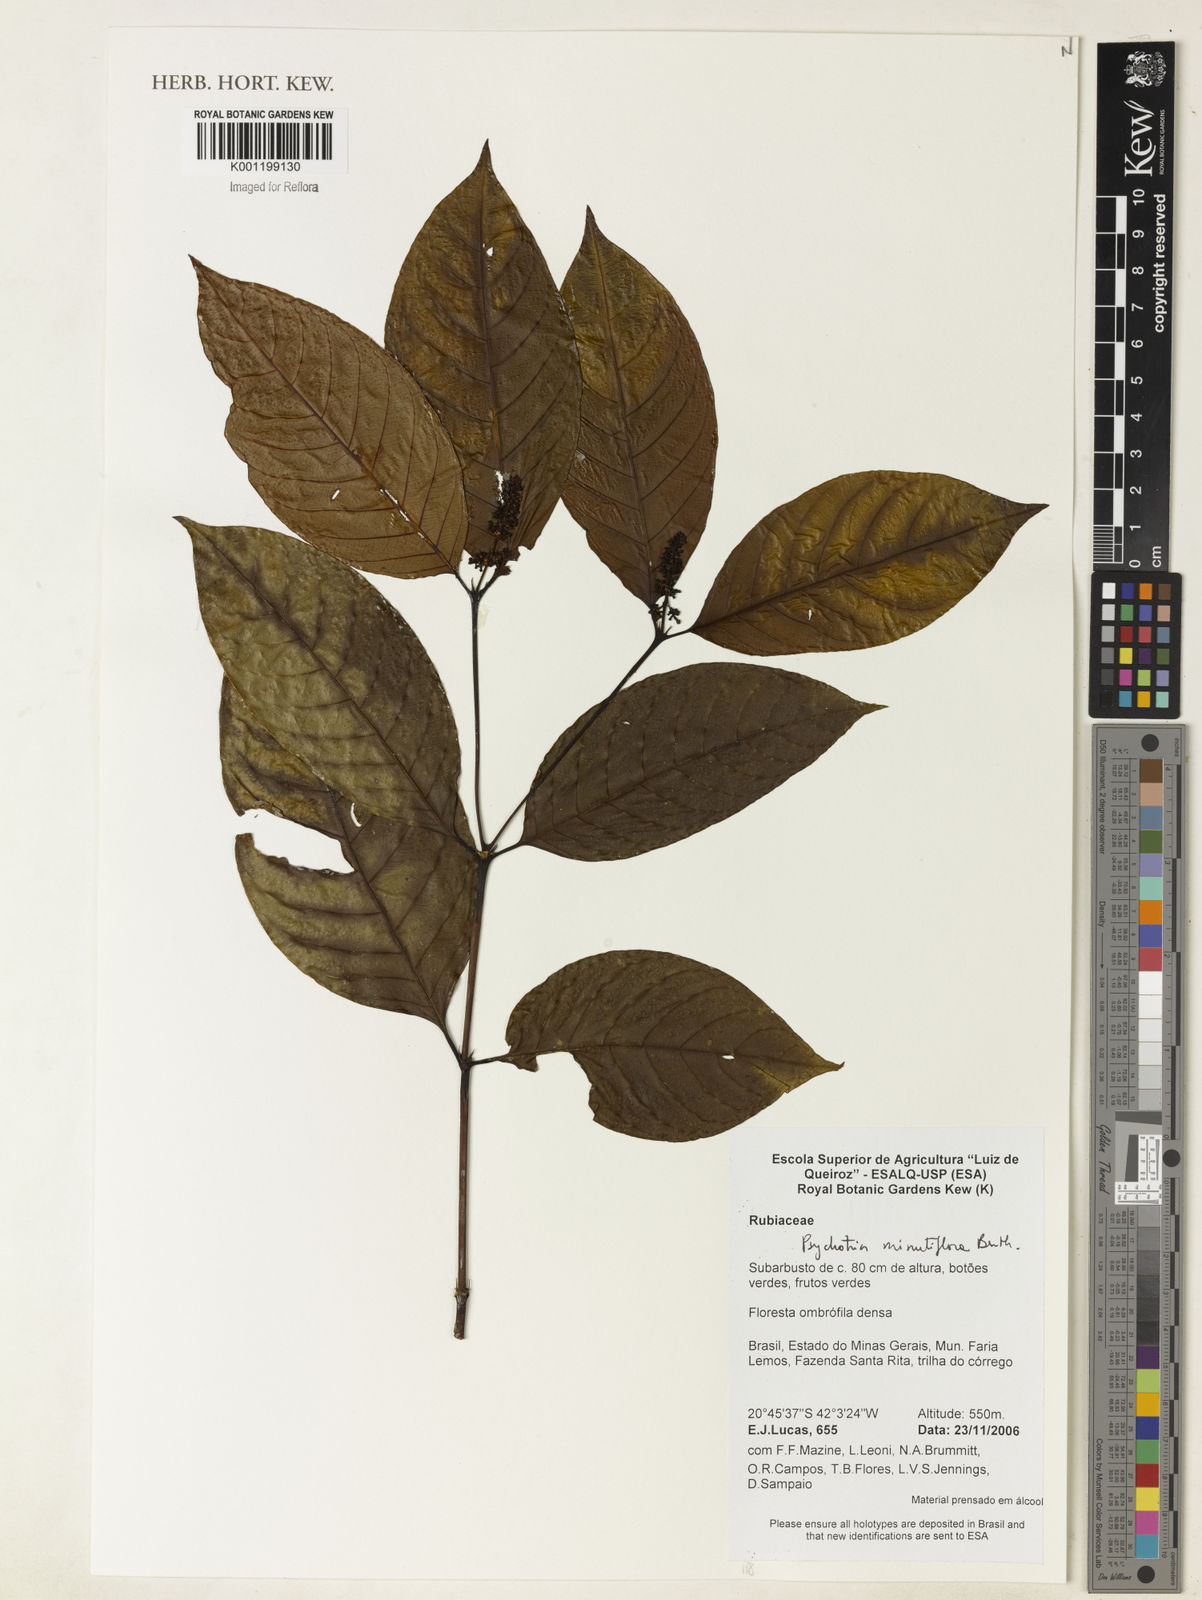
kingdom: Plantae
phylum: Tracheophyta
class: Magnoliopsida
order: Gentianales
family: Rubiaceae
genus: Psychotria
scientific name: Psychotria
